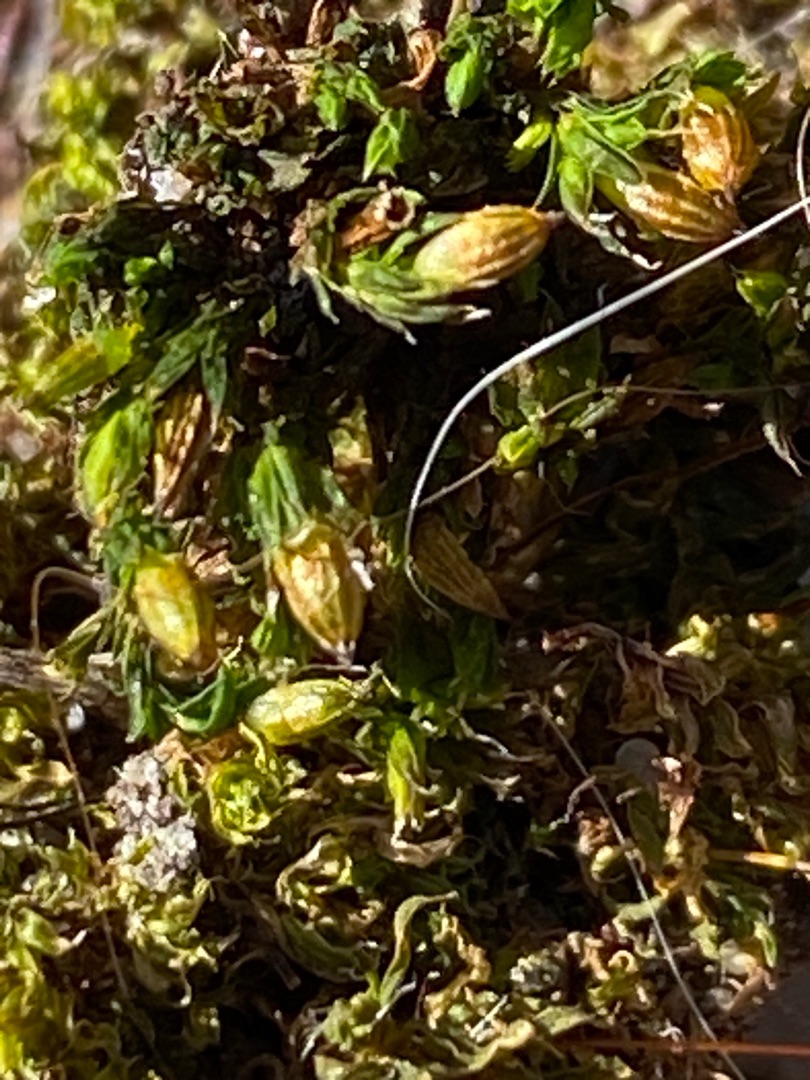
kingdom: Plantae
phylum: Bryophyta
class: Bryopsida
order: Orthotrichales
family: Orthotrichaceae
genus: Orthotrichum
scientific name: Orthotrichum diaphanum
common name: Hårspidset furehætte
